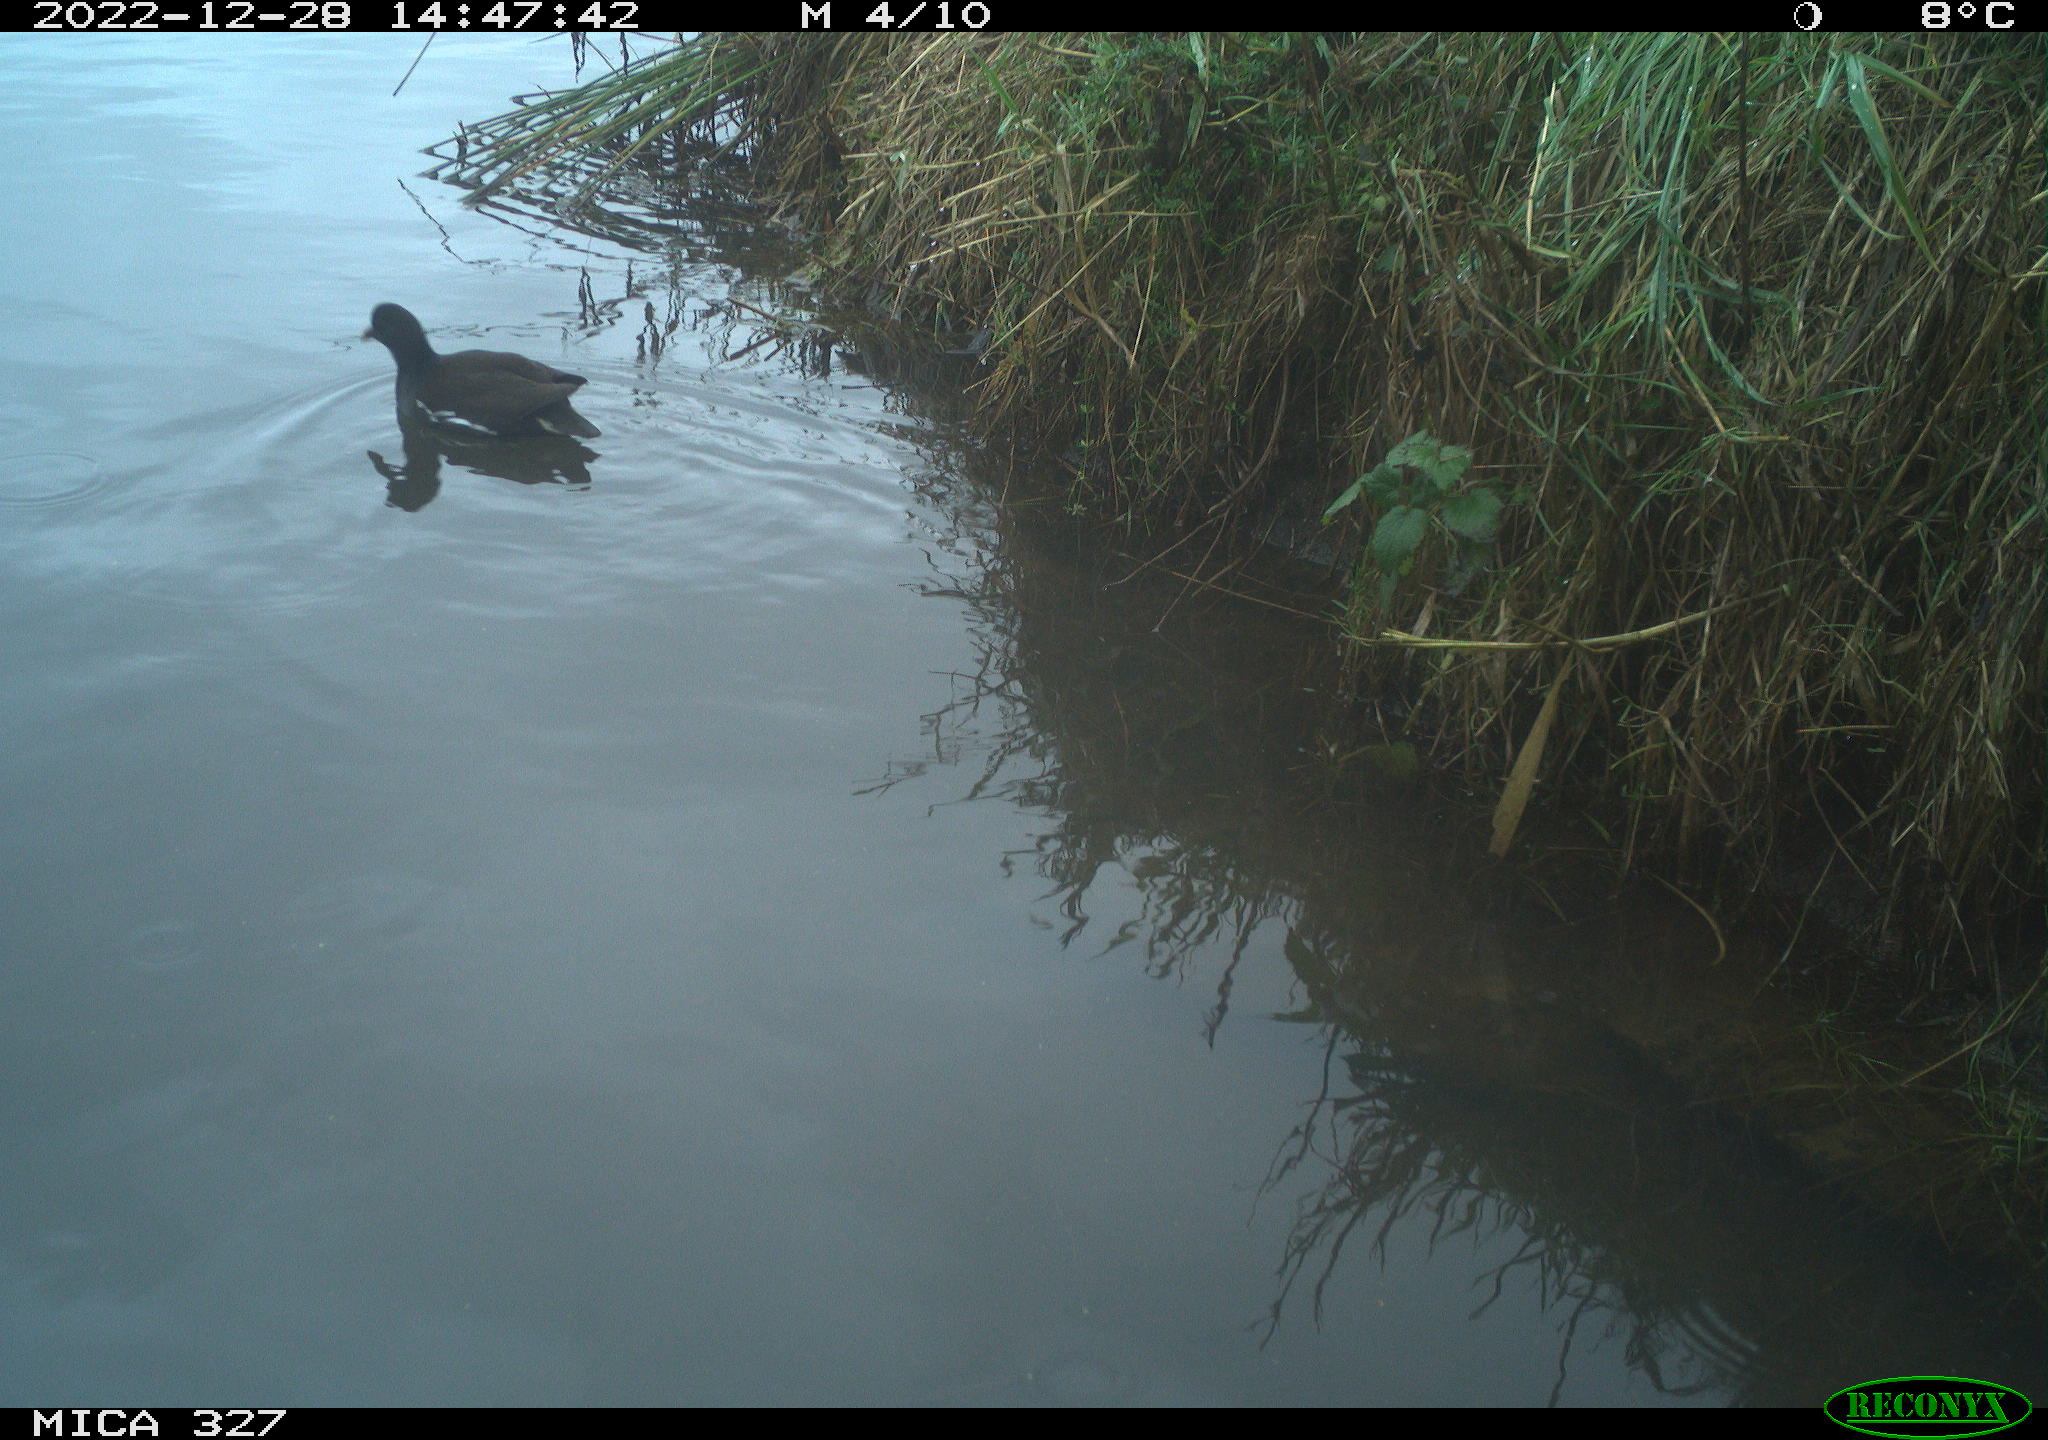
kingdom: Animalia
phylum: Chordata
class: Aves
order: Gruiformes
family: Rallidae
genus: Gallinula
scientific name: Gallinula chloropus
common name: Common moorhen
